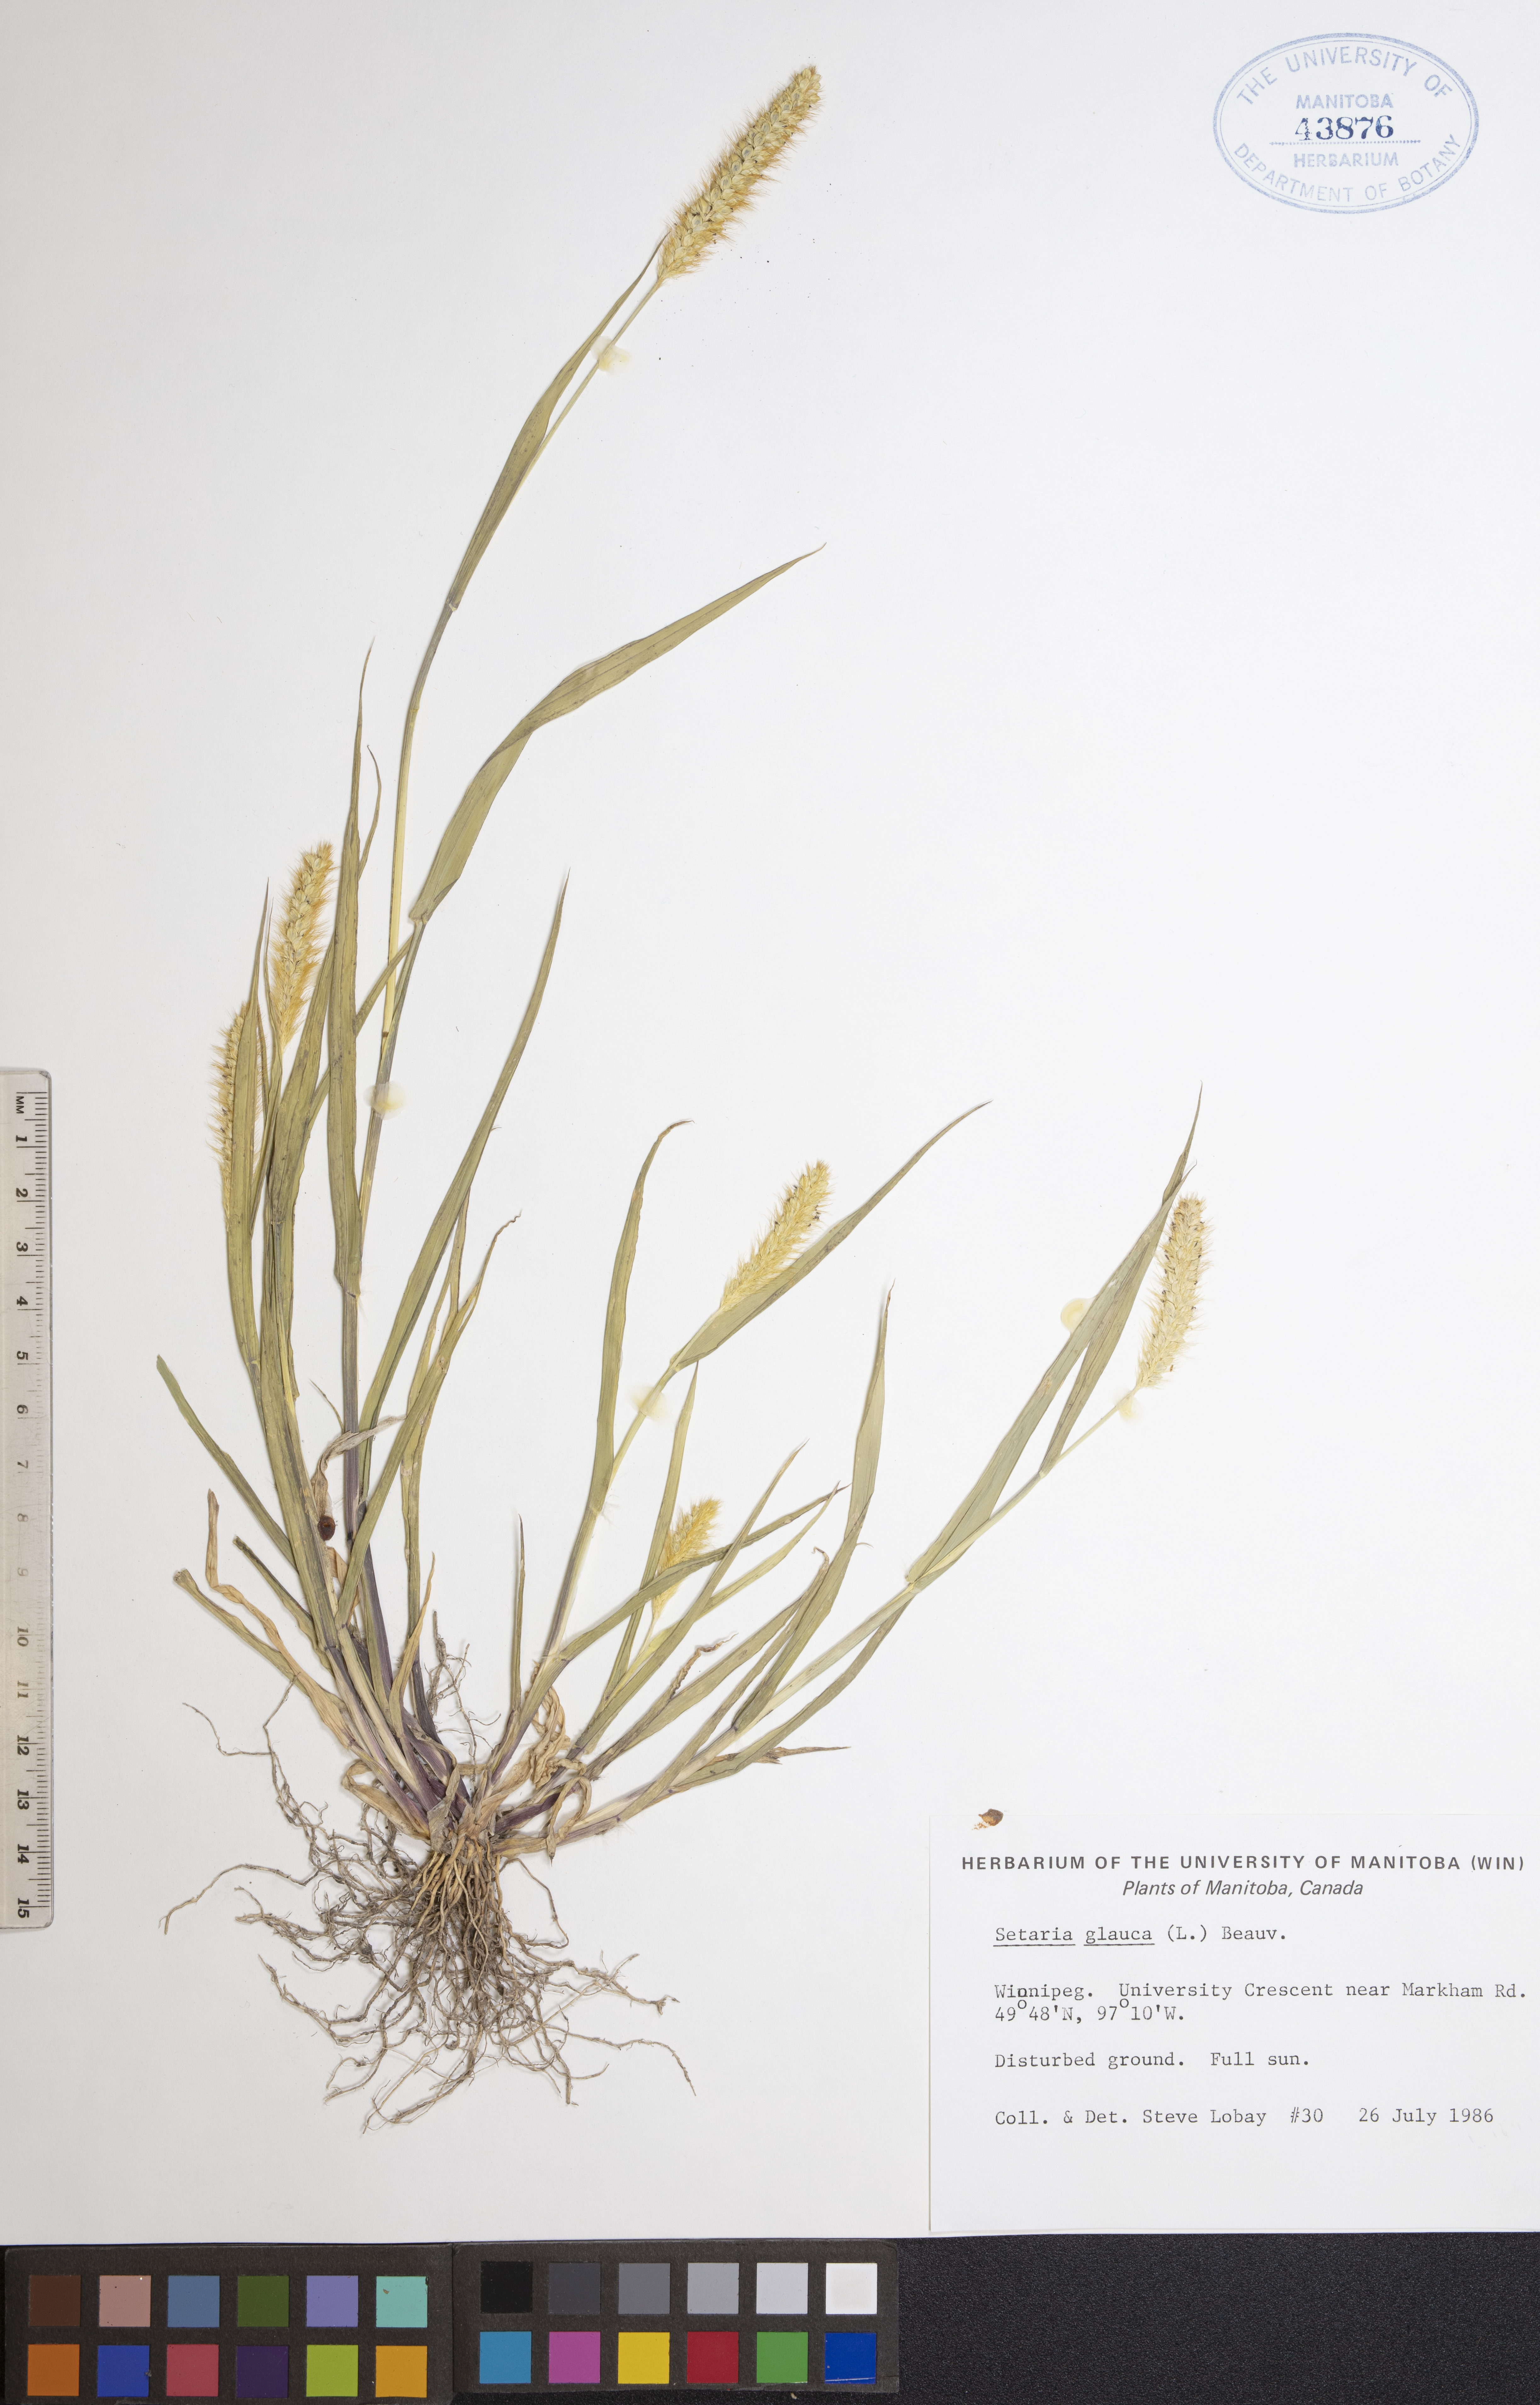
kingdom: Plantae
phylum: Tracheophyta
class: Liliopsida
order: Poales
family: Poaceae
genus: Cenchrus
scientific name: Cenchrus americanus
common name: Pearl millet
